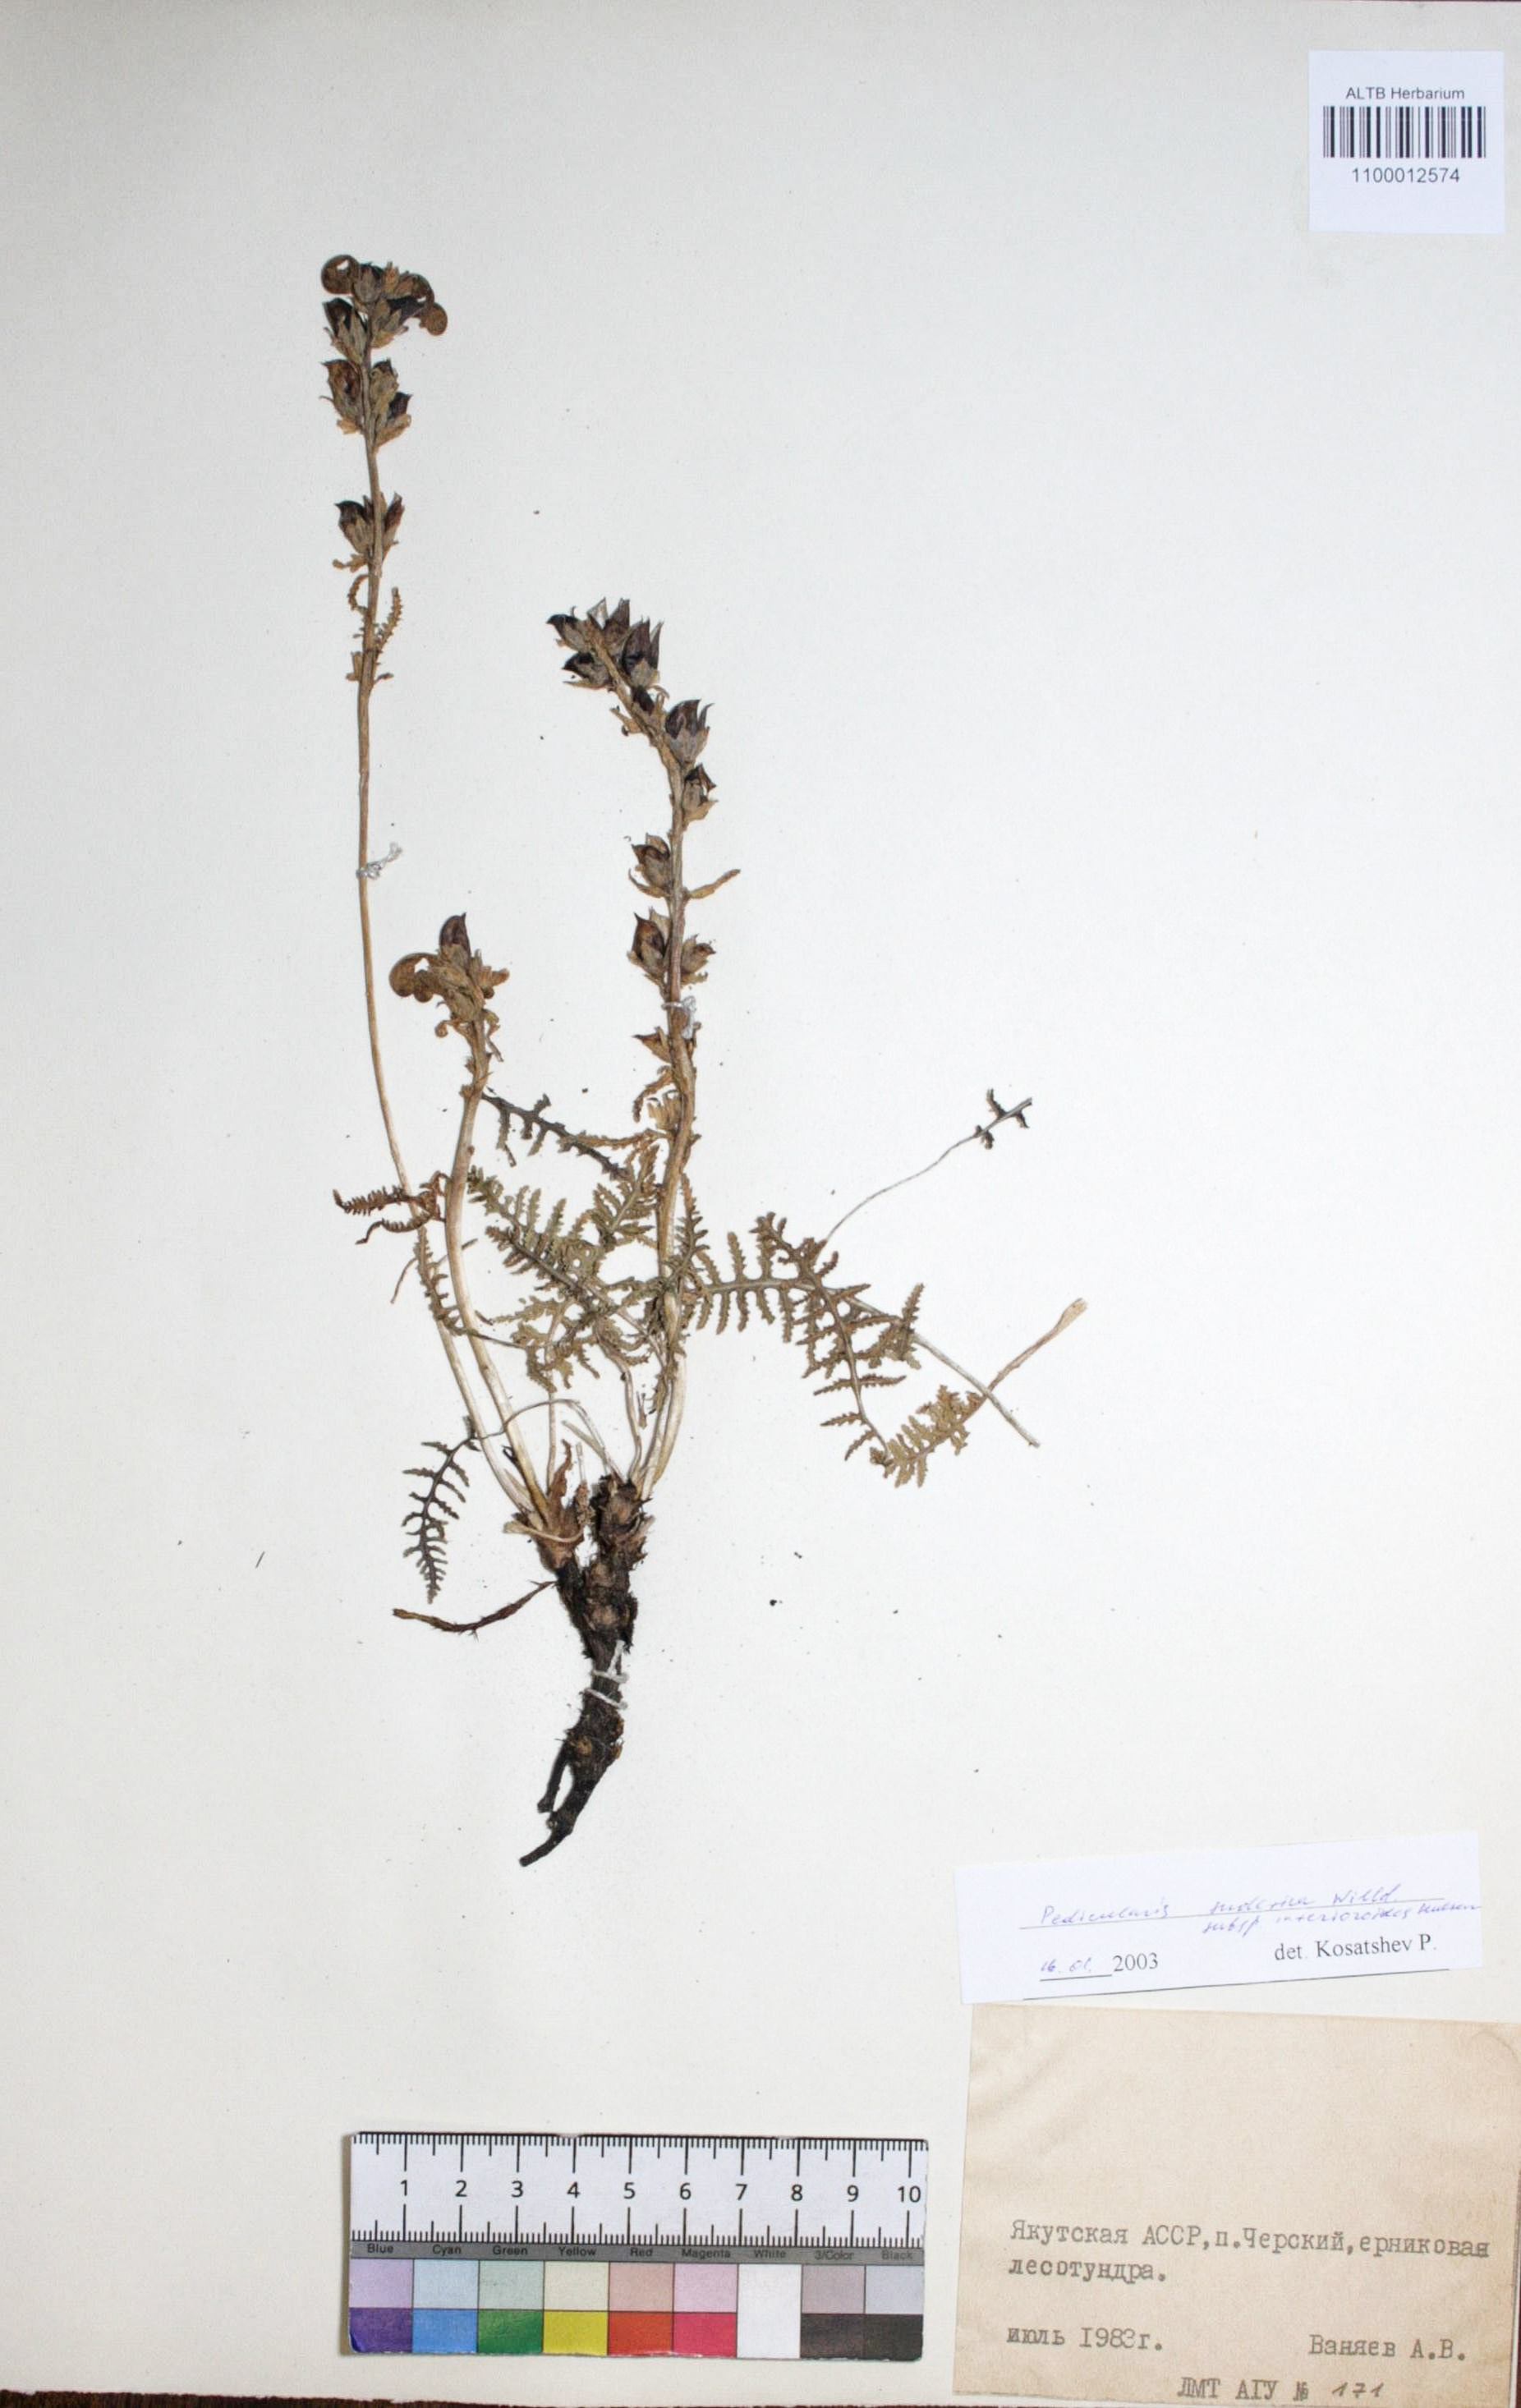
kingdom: Plantae
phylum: Tracheophyta
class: Magnoliopsida
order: Lamiales
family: Orobanchaceae
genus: Pedicularis
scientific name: Pedicularis sudetica
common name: Sudeten lousewort
